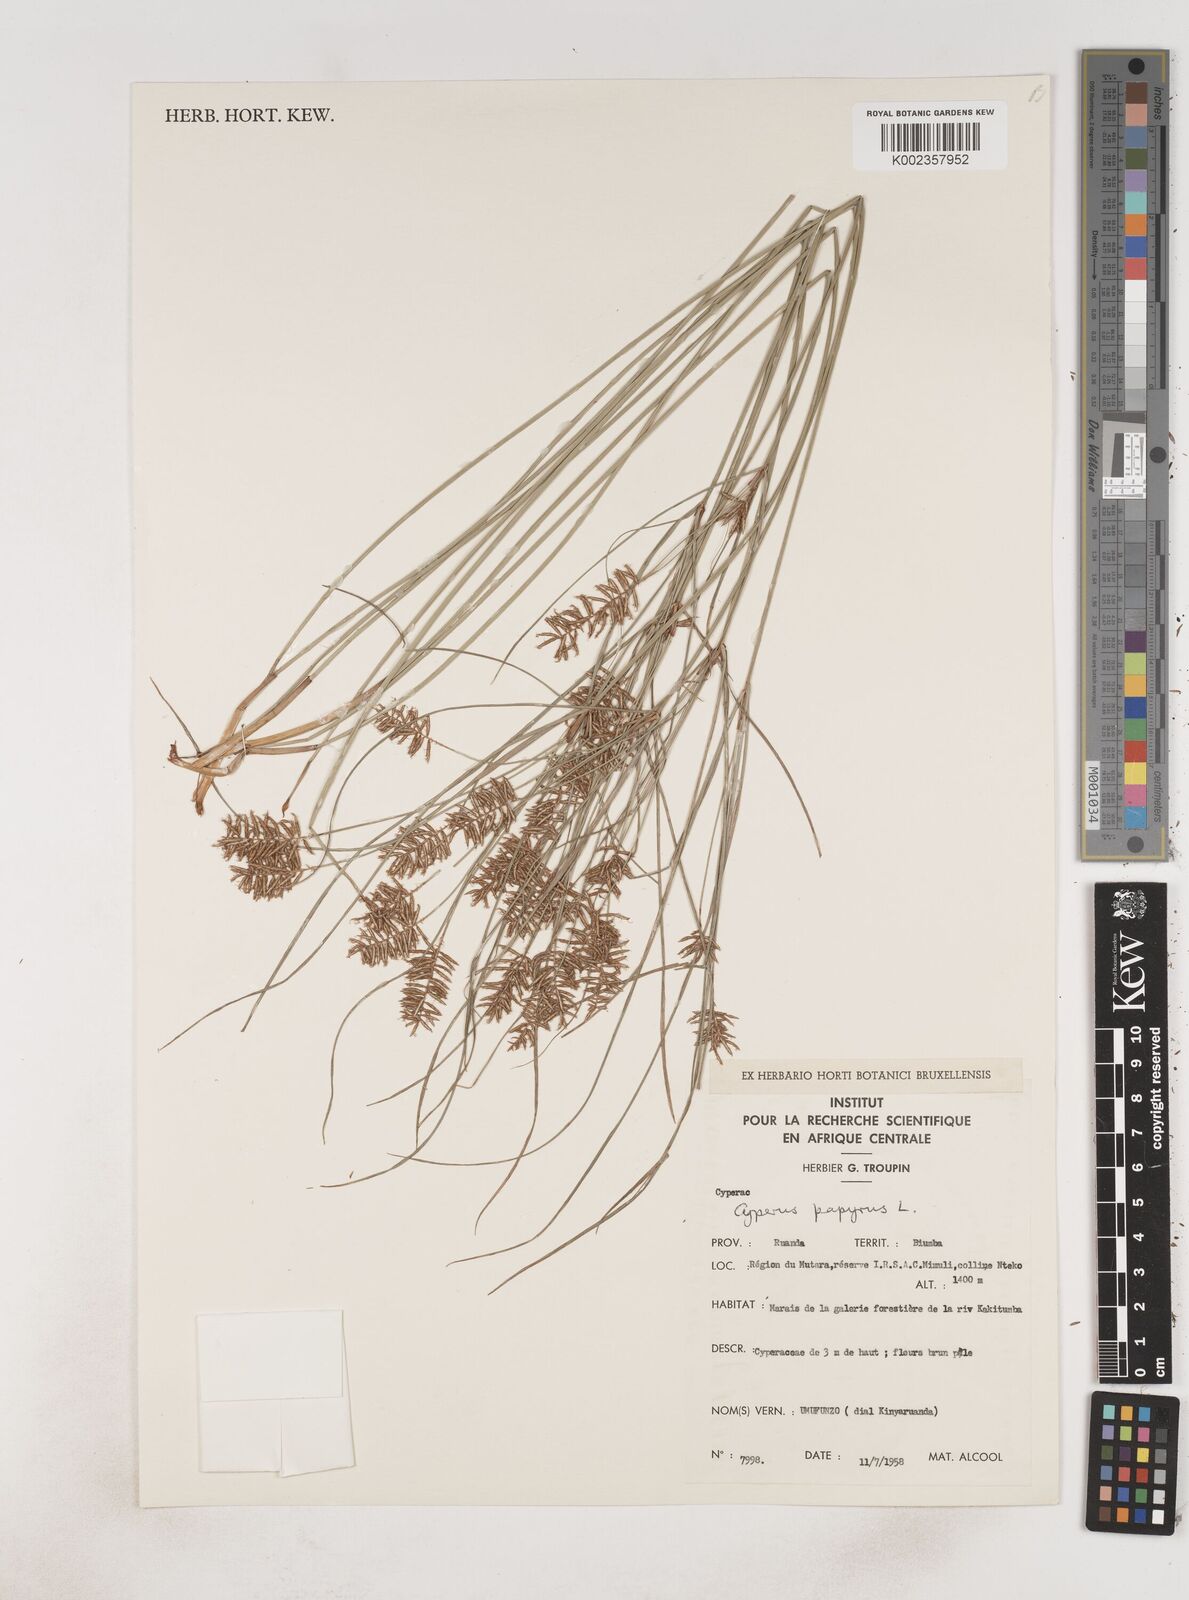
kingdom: Plantae
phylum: Tracheophyta
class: Liliopsida
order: Poales
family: Cyperaceae
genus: Cyperus
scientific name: Cyperus papyrus
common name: Papyrus
